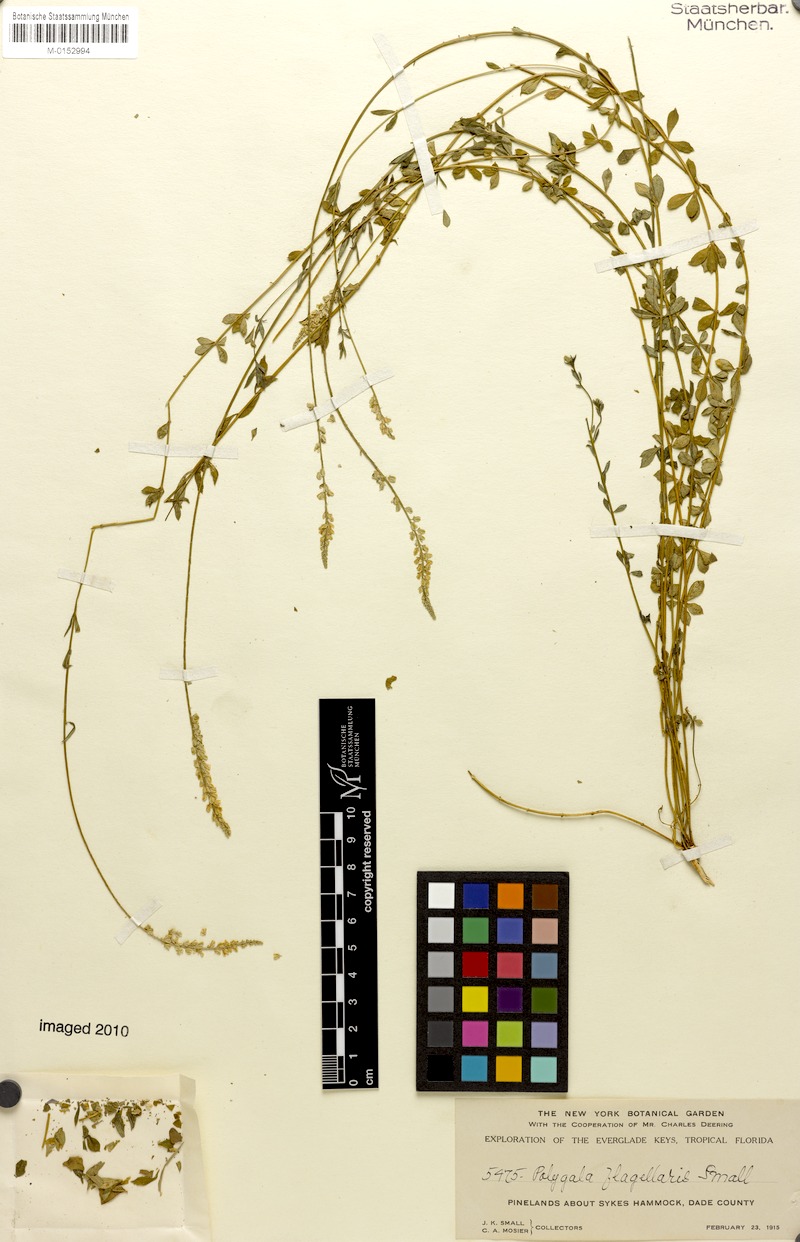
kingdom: Plantae
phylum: Tracheophyta
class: Magnoliopsida
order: Fabales
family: Polygalaceae
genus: Polygala
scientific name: Polygala boykinii
